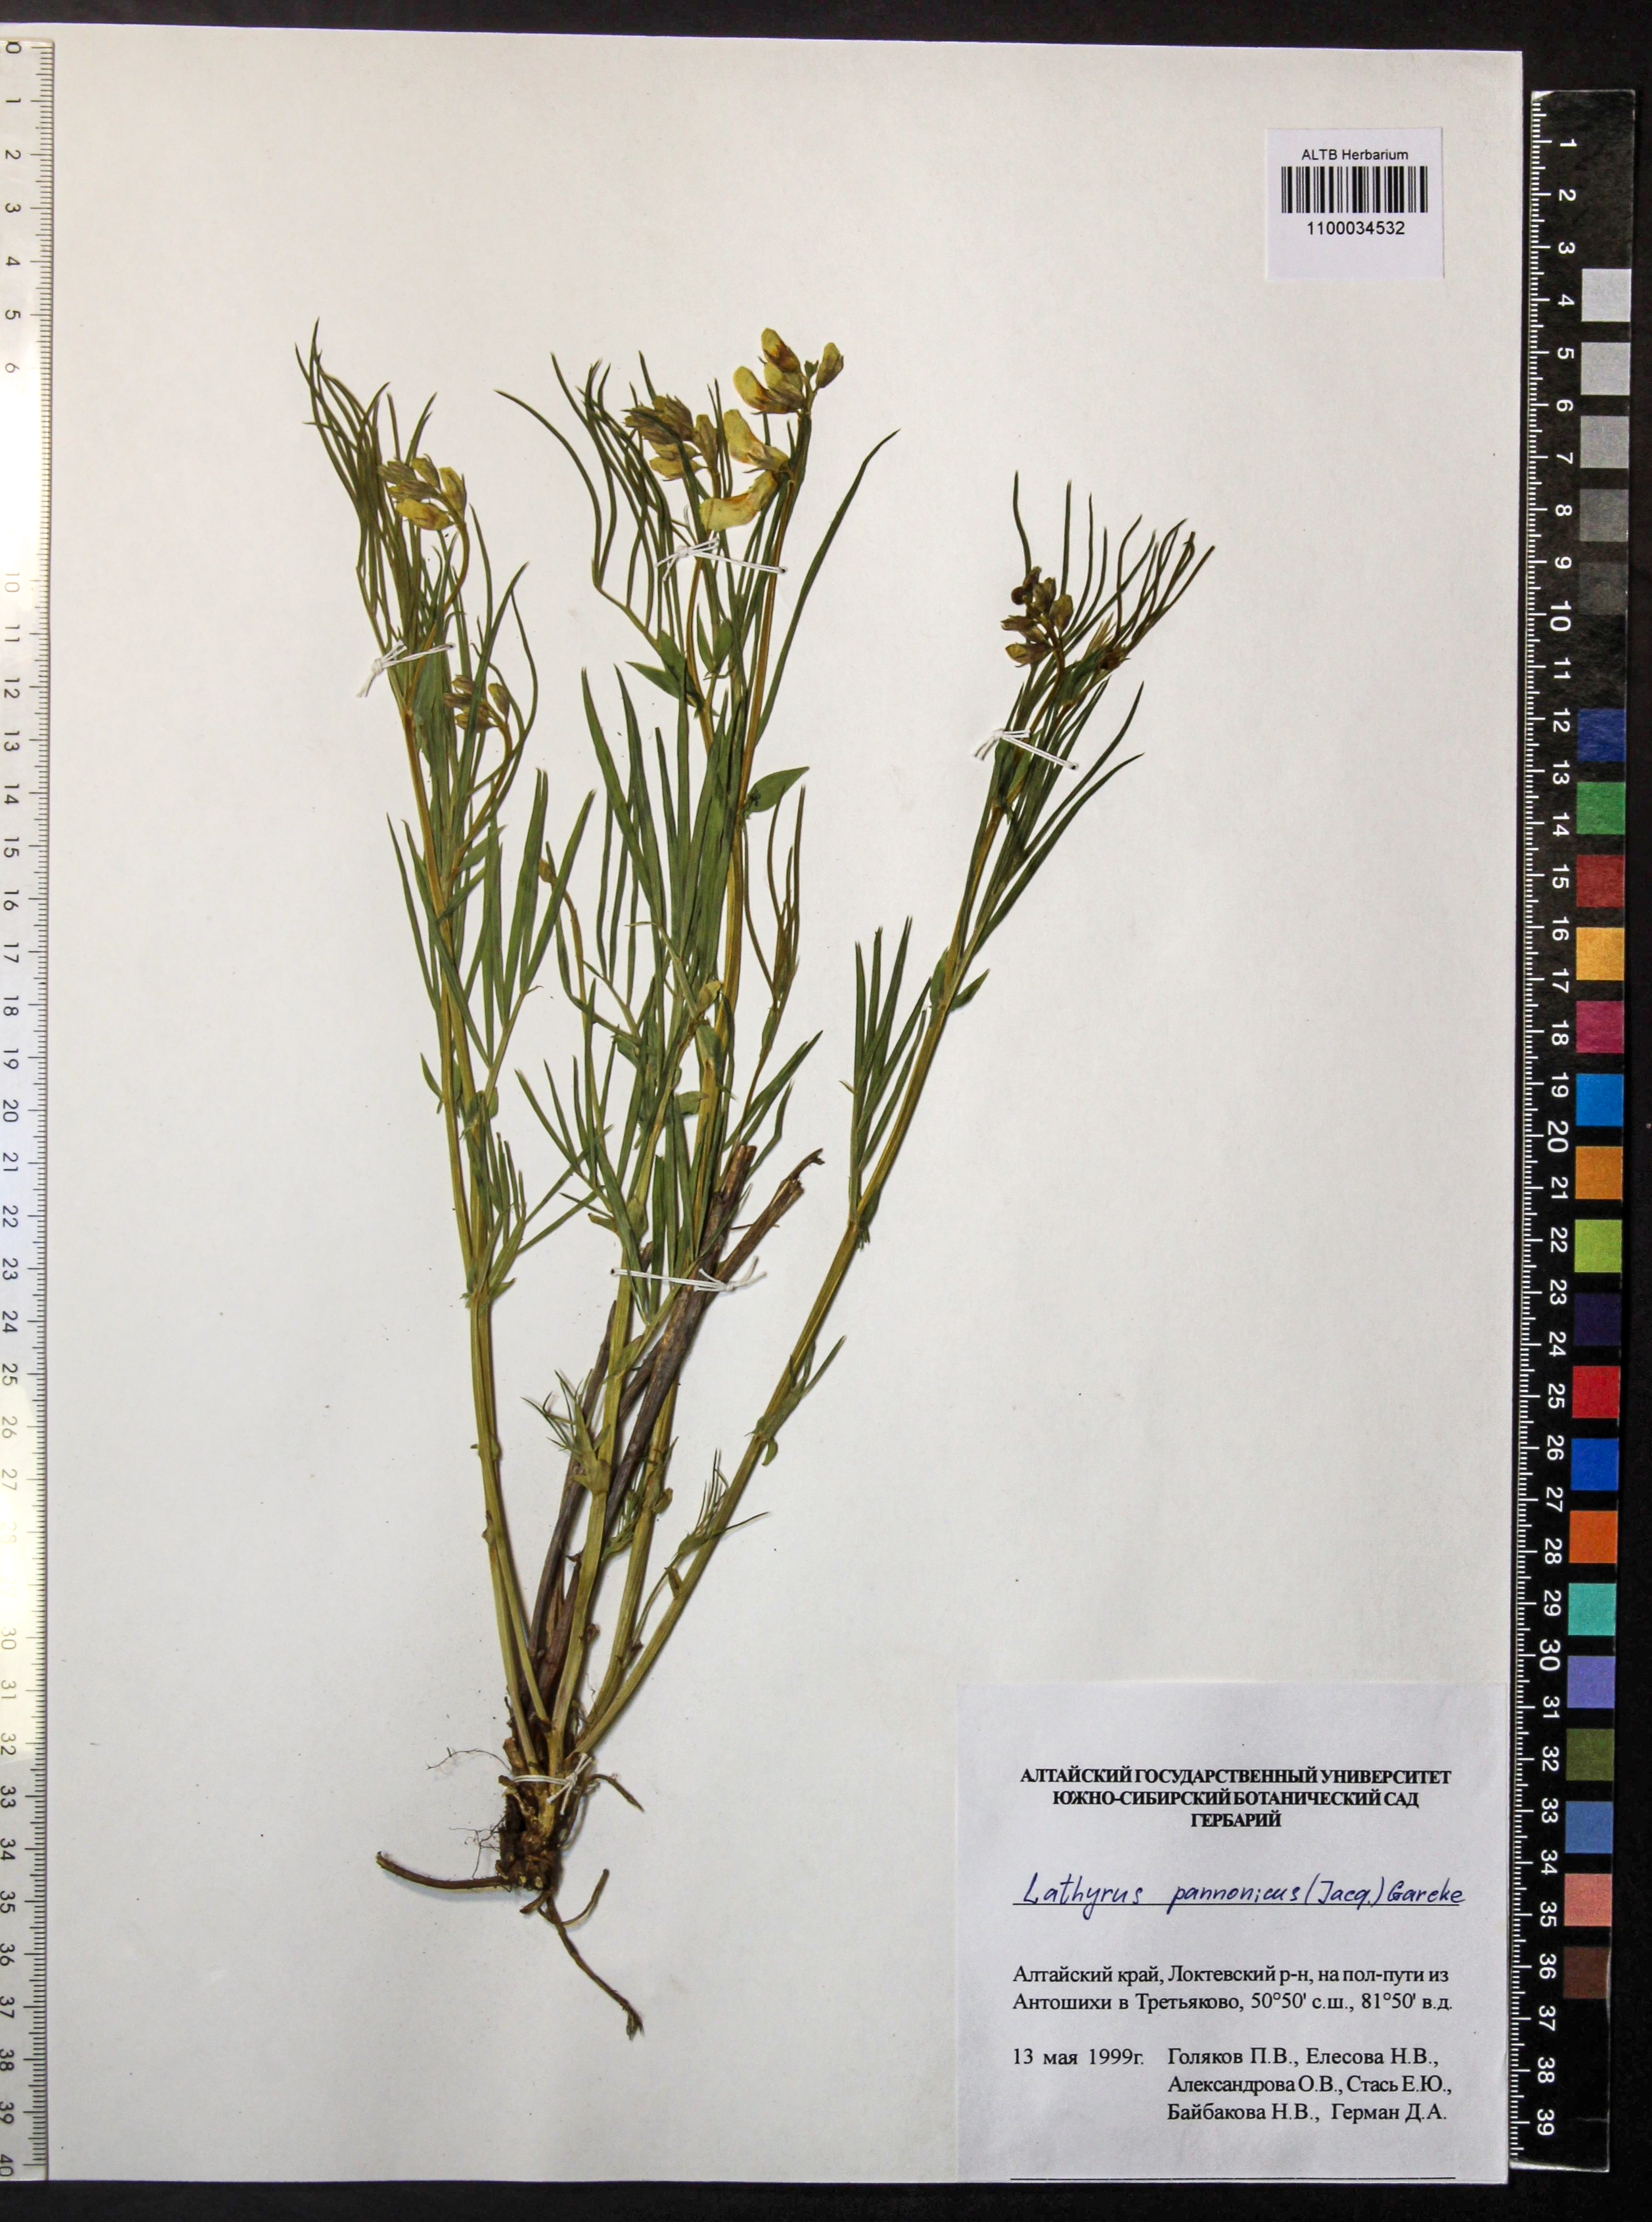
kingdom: Plantae
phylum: Tracheophyta
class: Magnoliopsida
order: Fabales
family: Fabaceae
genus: Lathyrus
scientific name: Lathyrus pannonicus
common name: Pea
